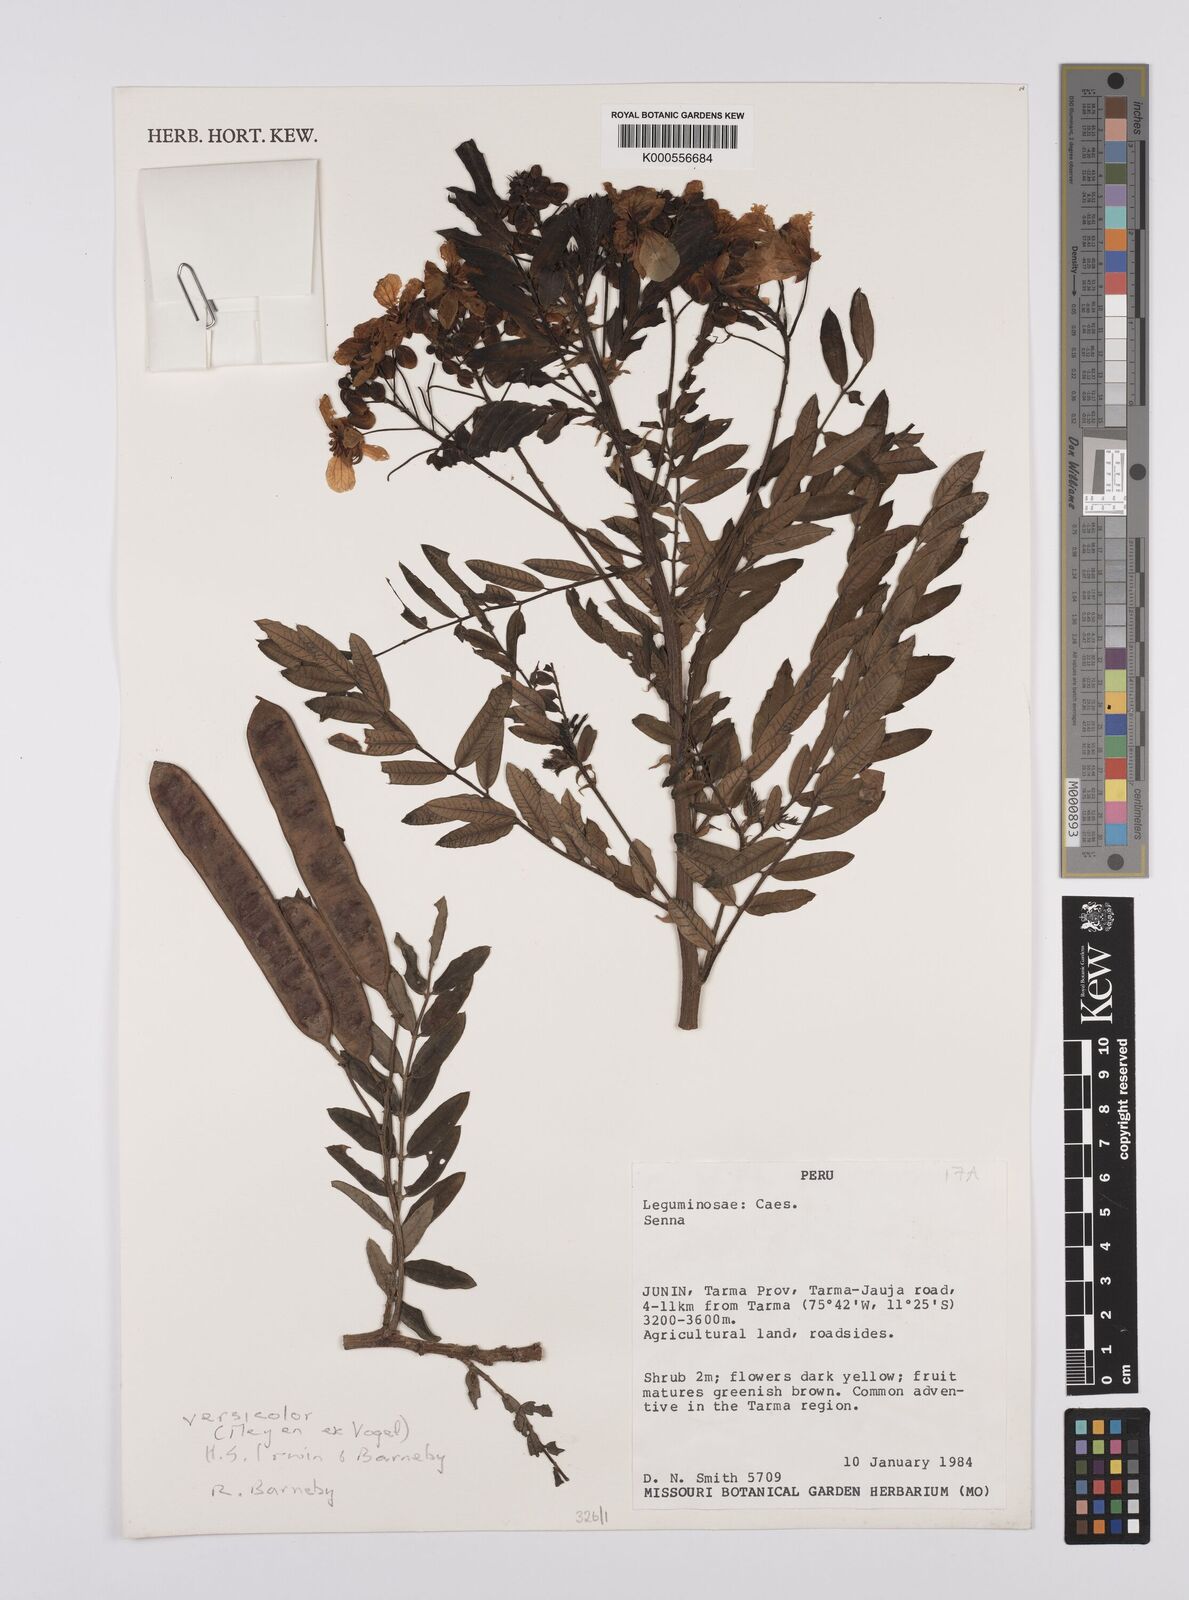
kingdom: Plantae
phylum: Tracheophyta
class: Magnoliopsida
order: Fabales
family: Fabaceae
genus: Senna
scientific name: Senna
